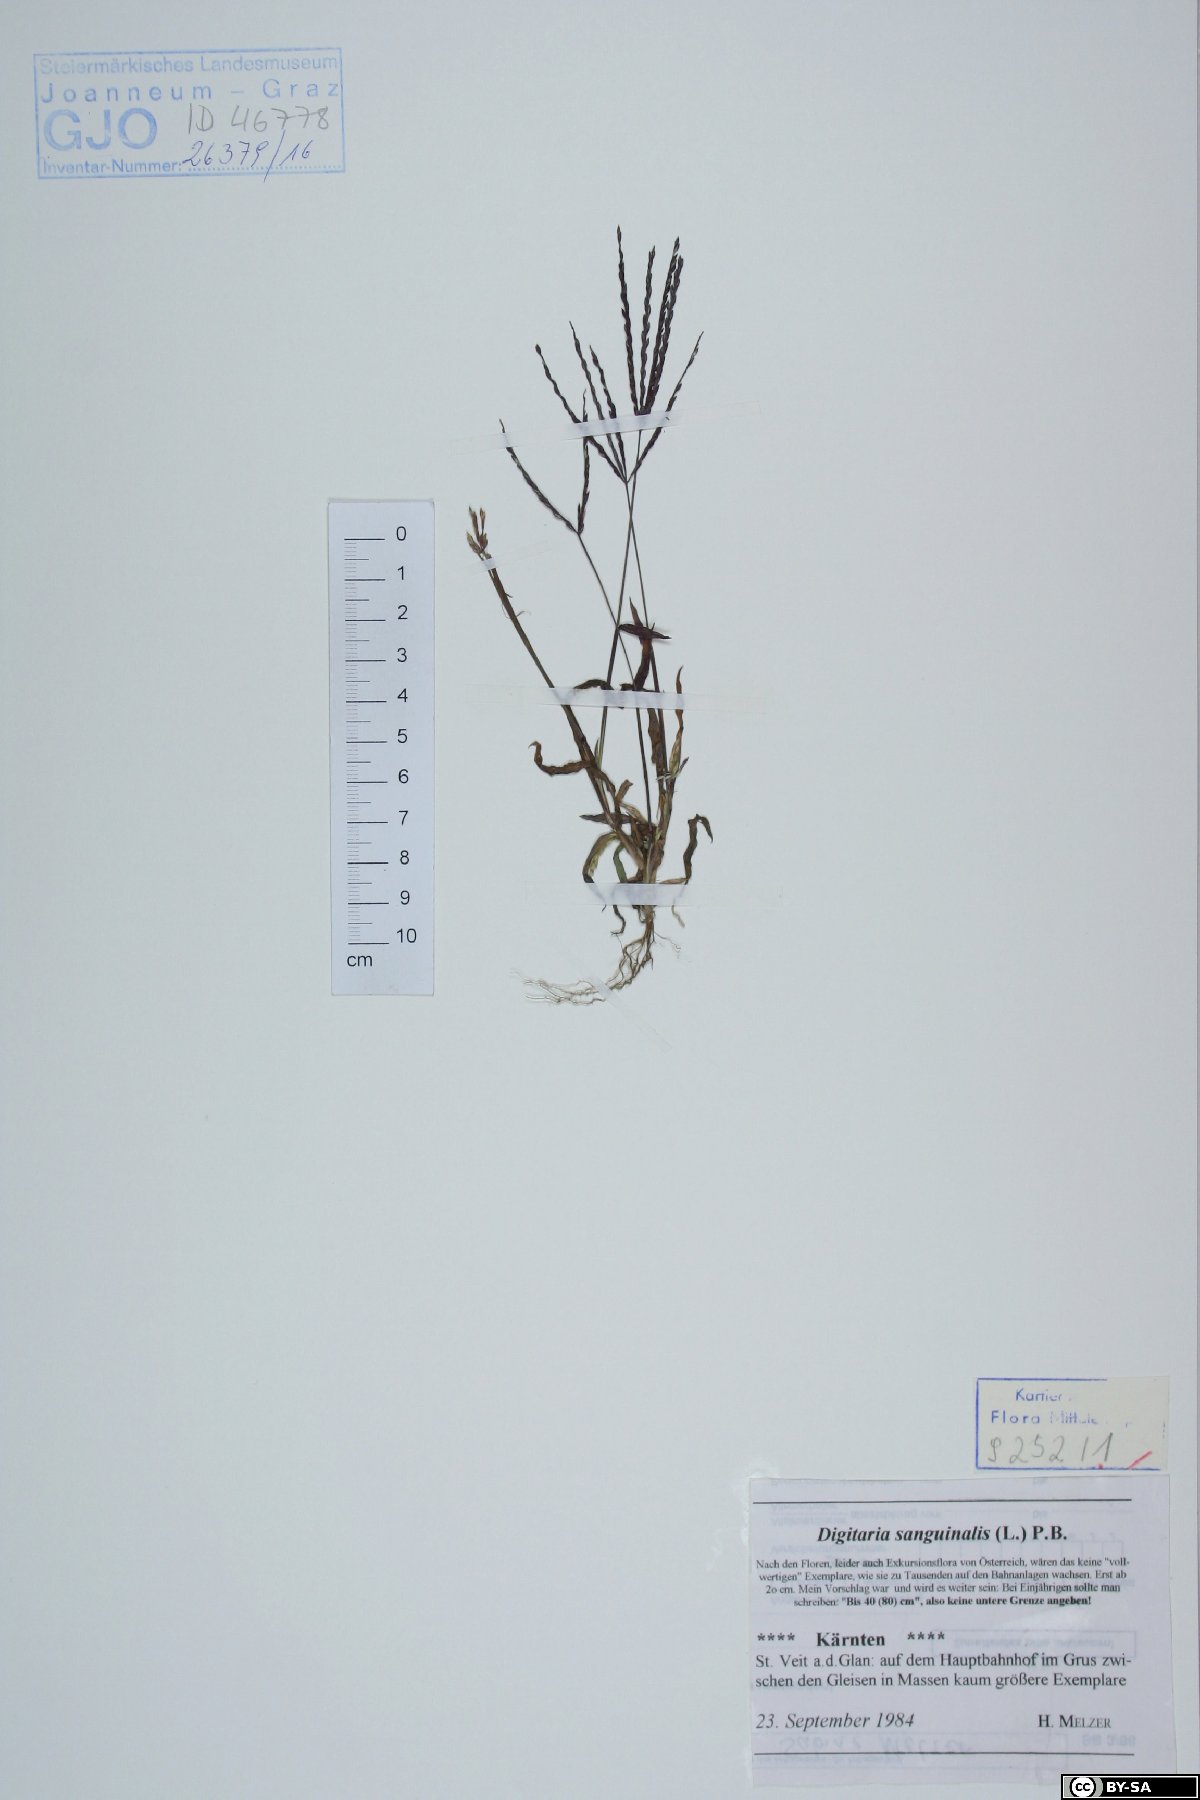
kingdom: Plantae
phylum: Tracheophyta
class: Liliopsida
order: Poales
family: Poaceae
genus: Digitaria
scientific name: Digitaria sanguinalis
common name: Hairy crabgrass
